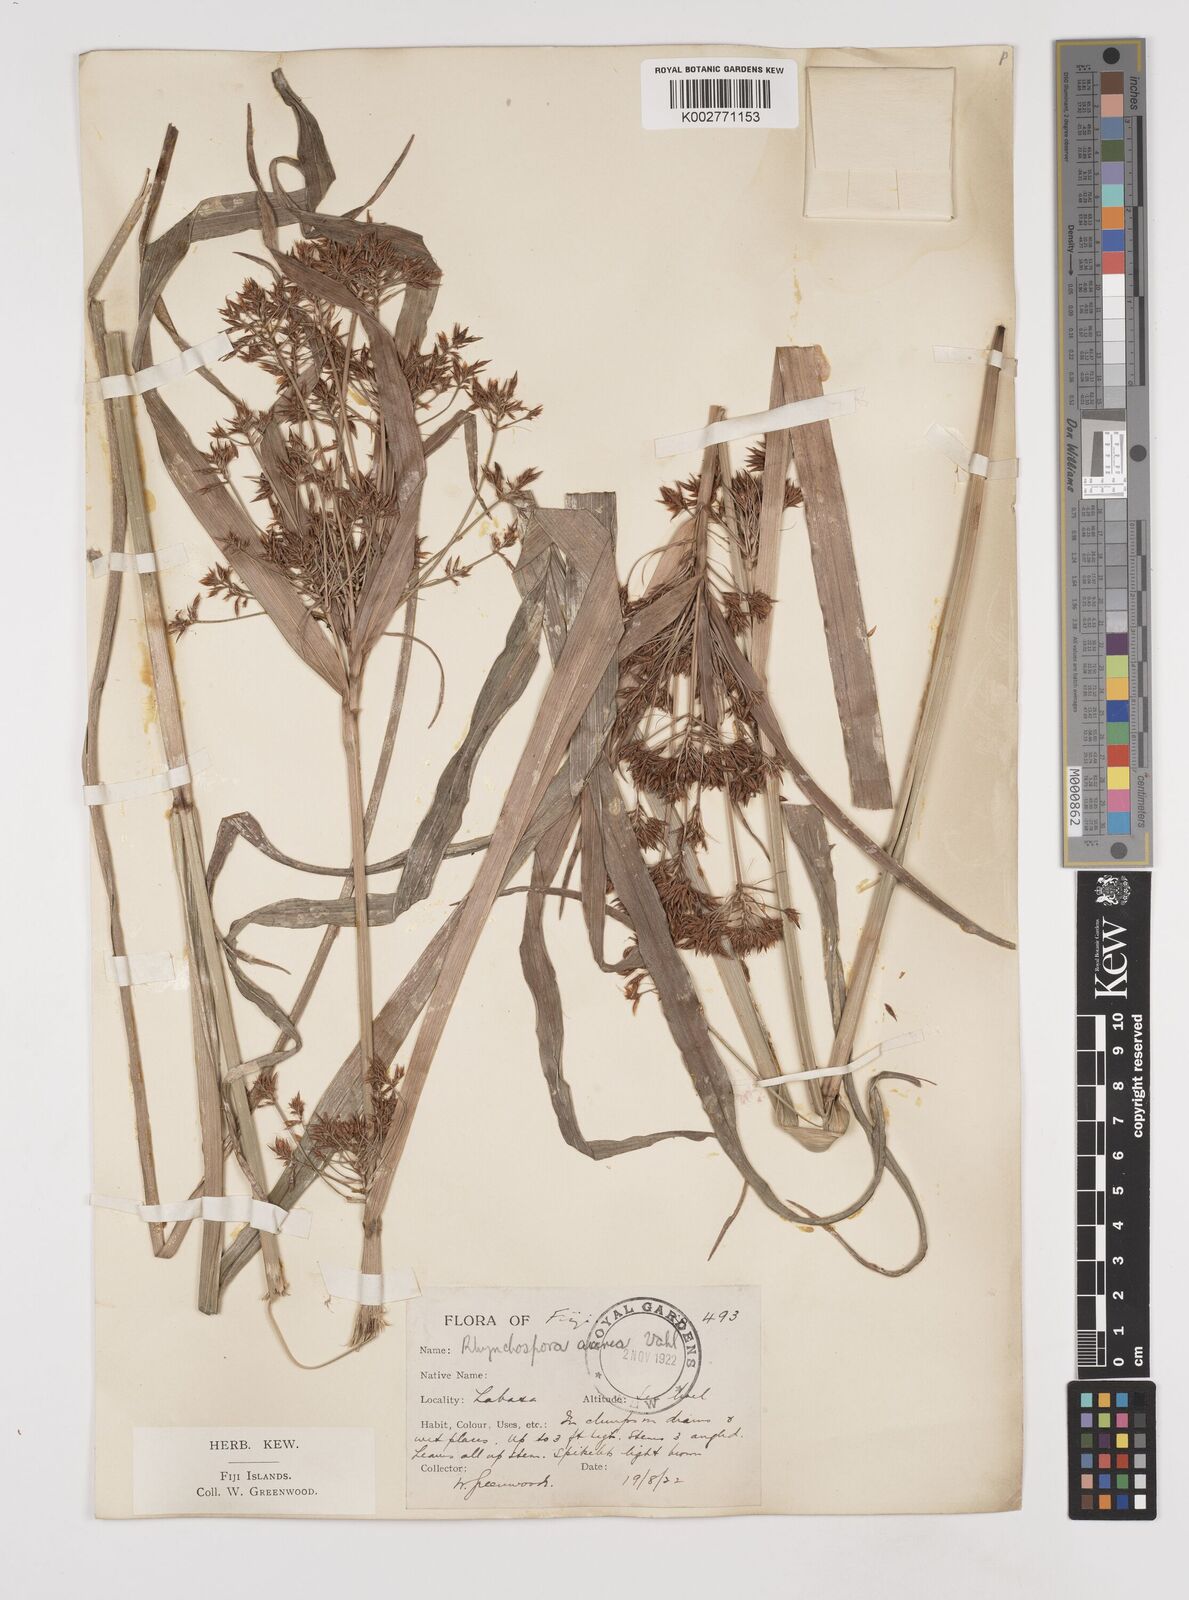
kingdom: Plantae
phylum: Tracheophyta
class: Liliopsida
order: Poales
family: Cyperaceae
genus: Rhynchospora
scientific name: Rhynchospora corymbosa
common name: Golden beak sedge
